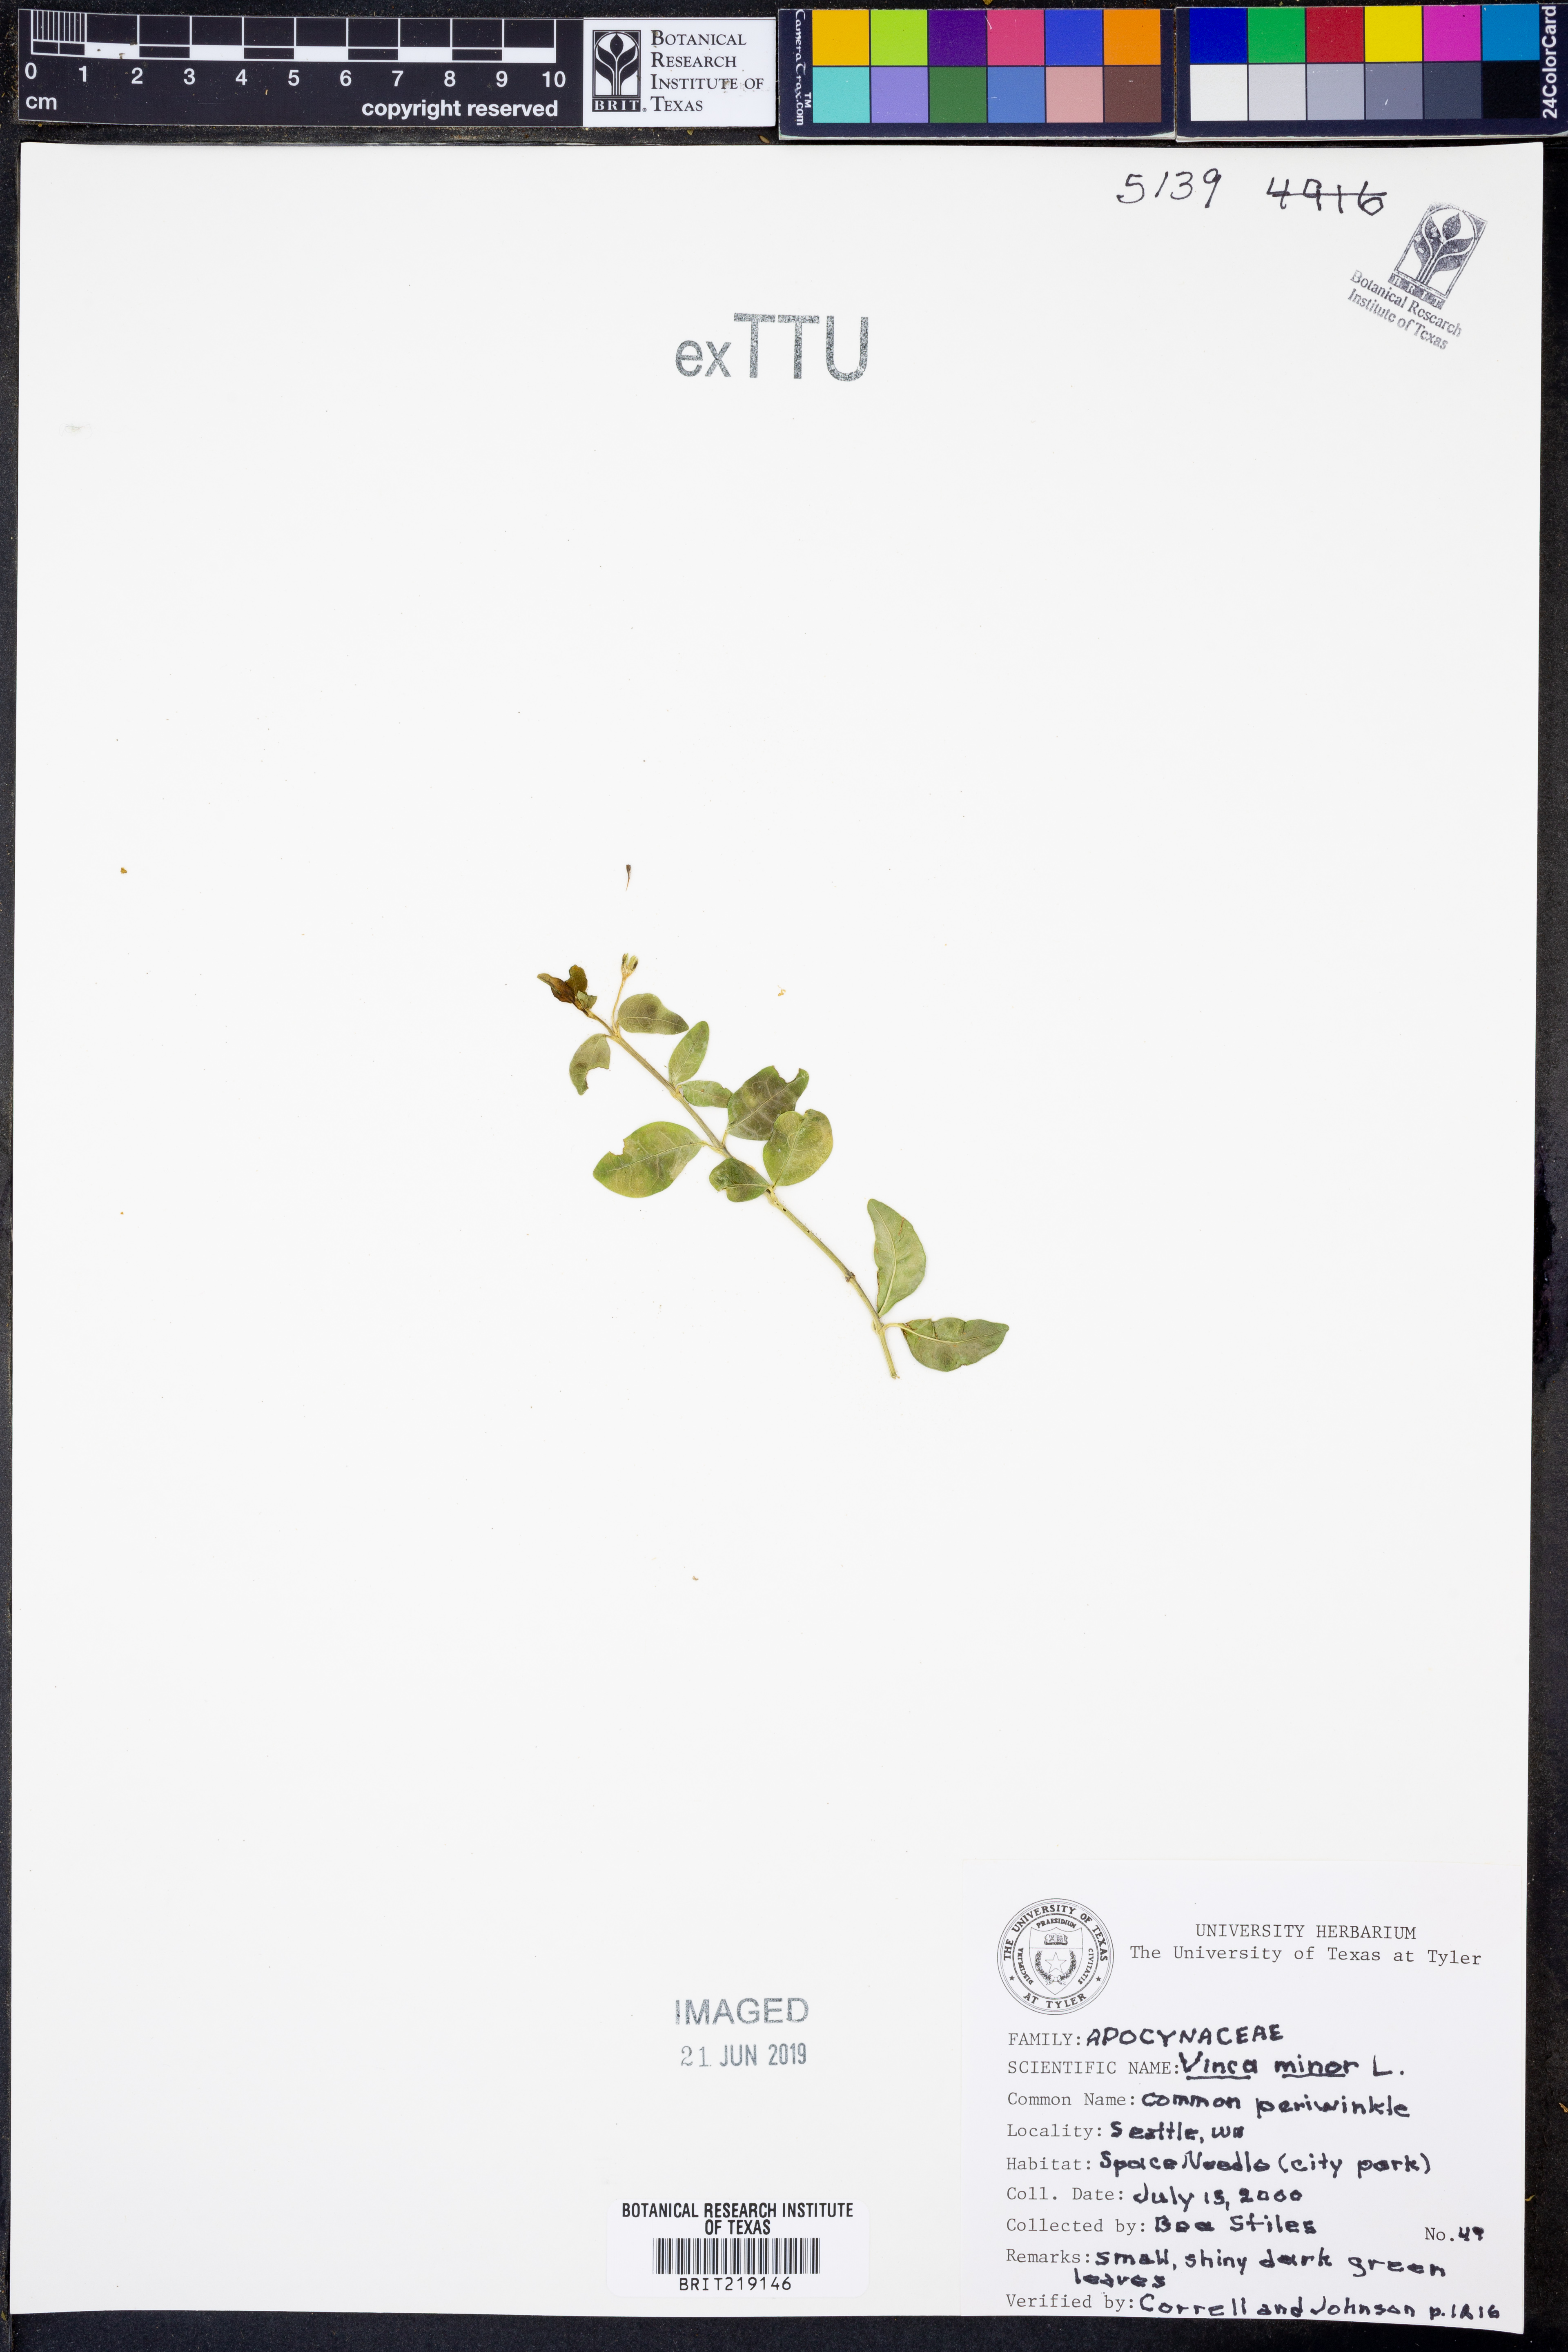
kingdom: Plantae
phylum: Tracheophyta
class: Magnoliopsida
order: Gentianales
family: Apocynaceae
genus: Vinca
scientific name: Vinca minor
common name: Lesser periwinkle
